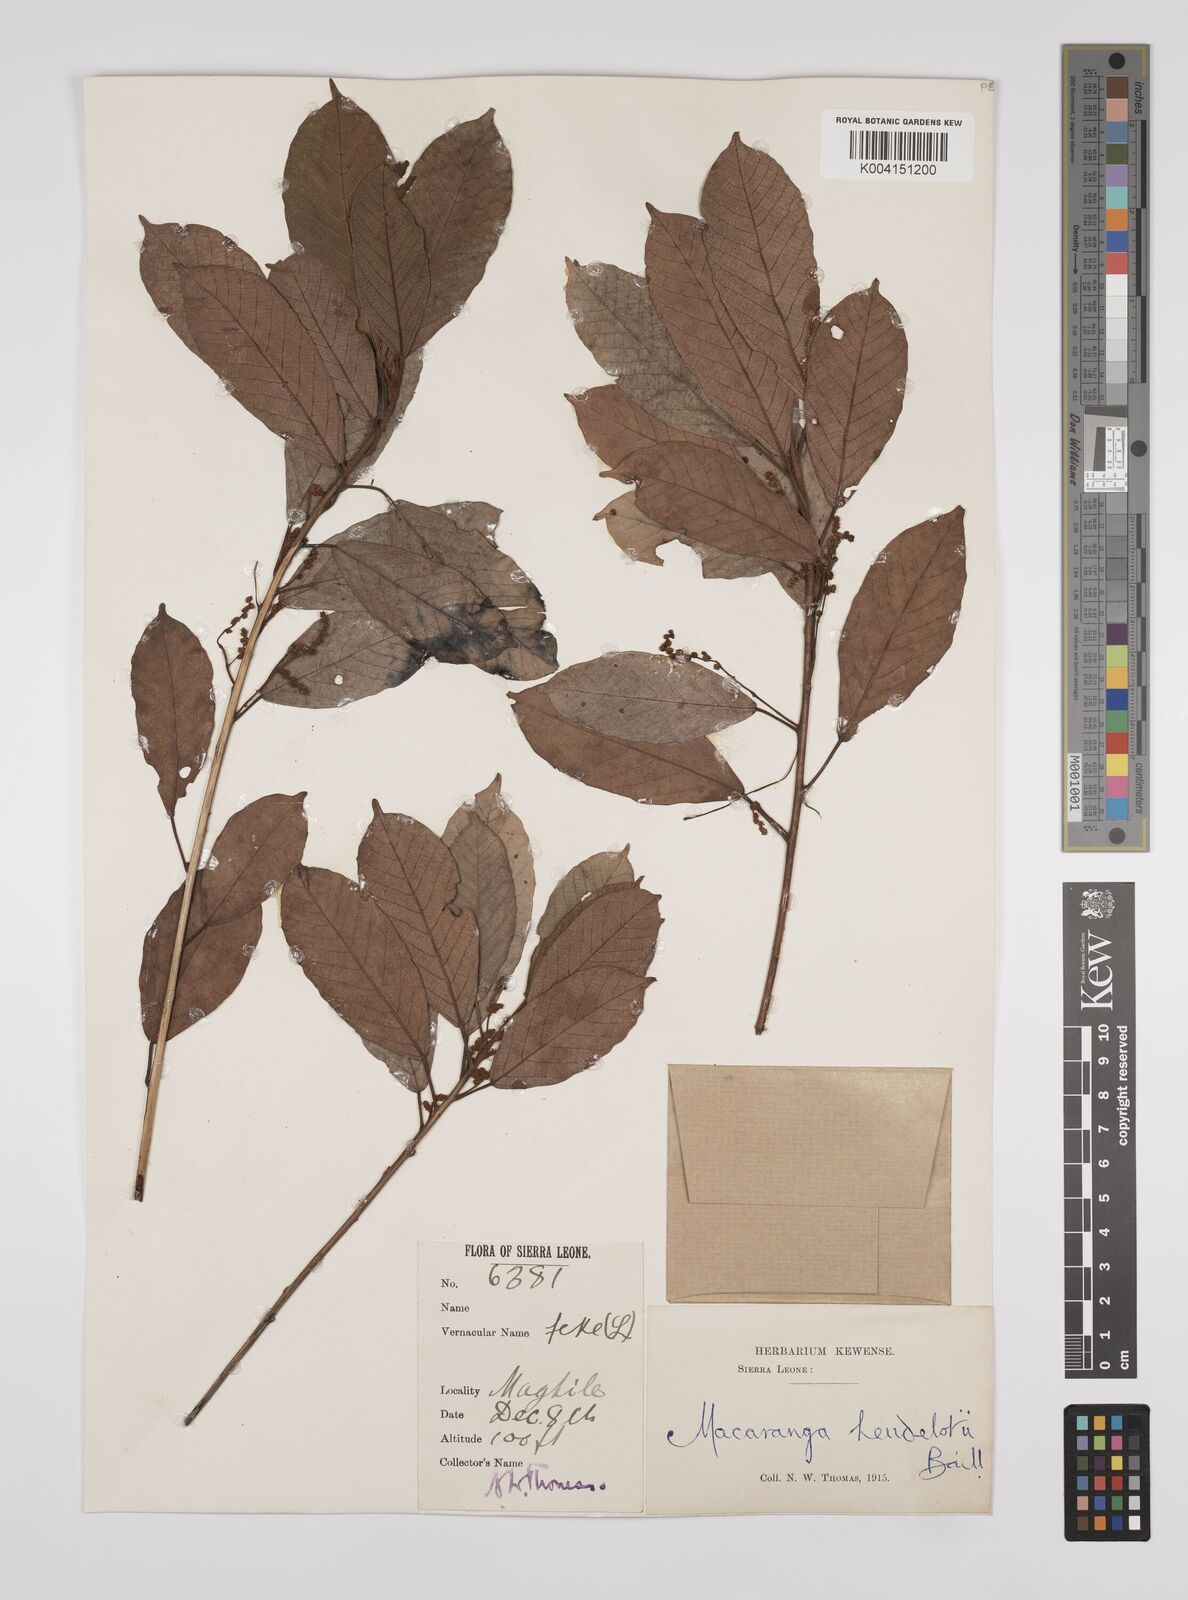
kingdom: Plantae
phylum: Tracheophyta
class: Magnoliopsida
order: Malpighiales
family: Euphorbiaceae
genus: Macaranga
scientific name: Macaranga heudelotii
